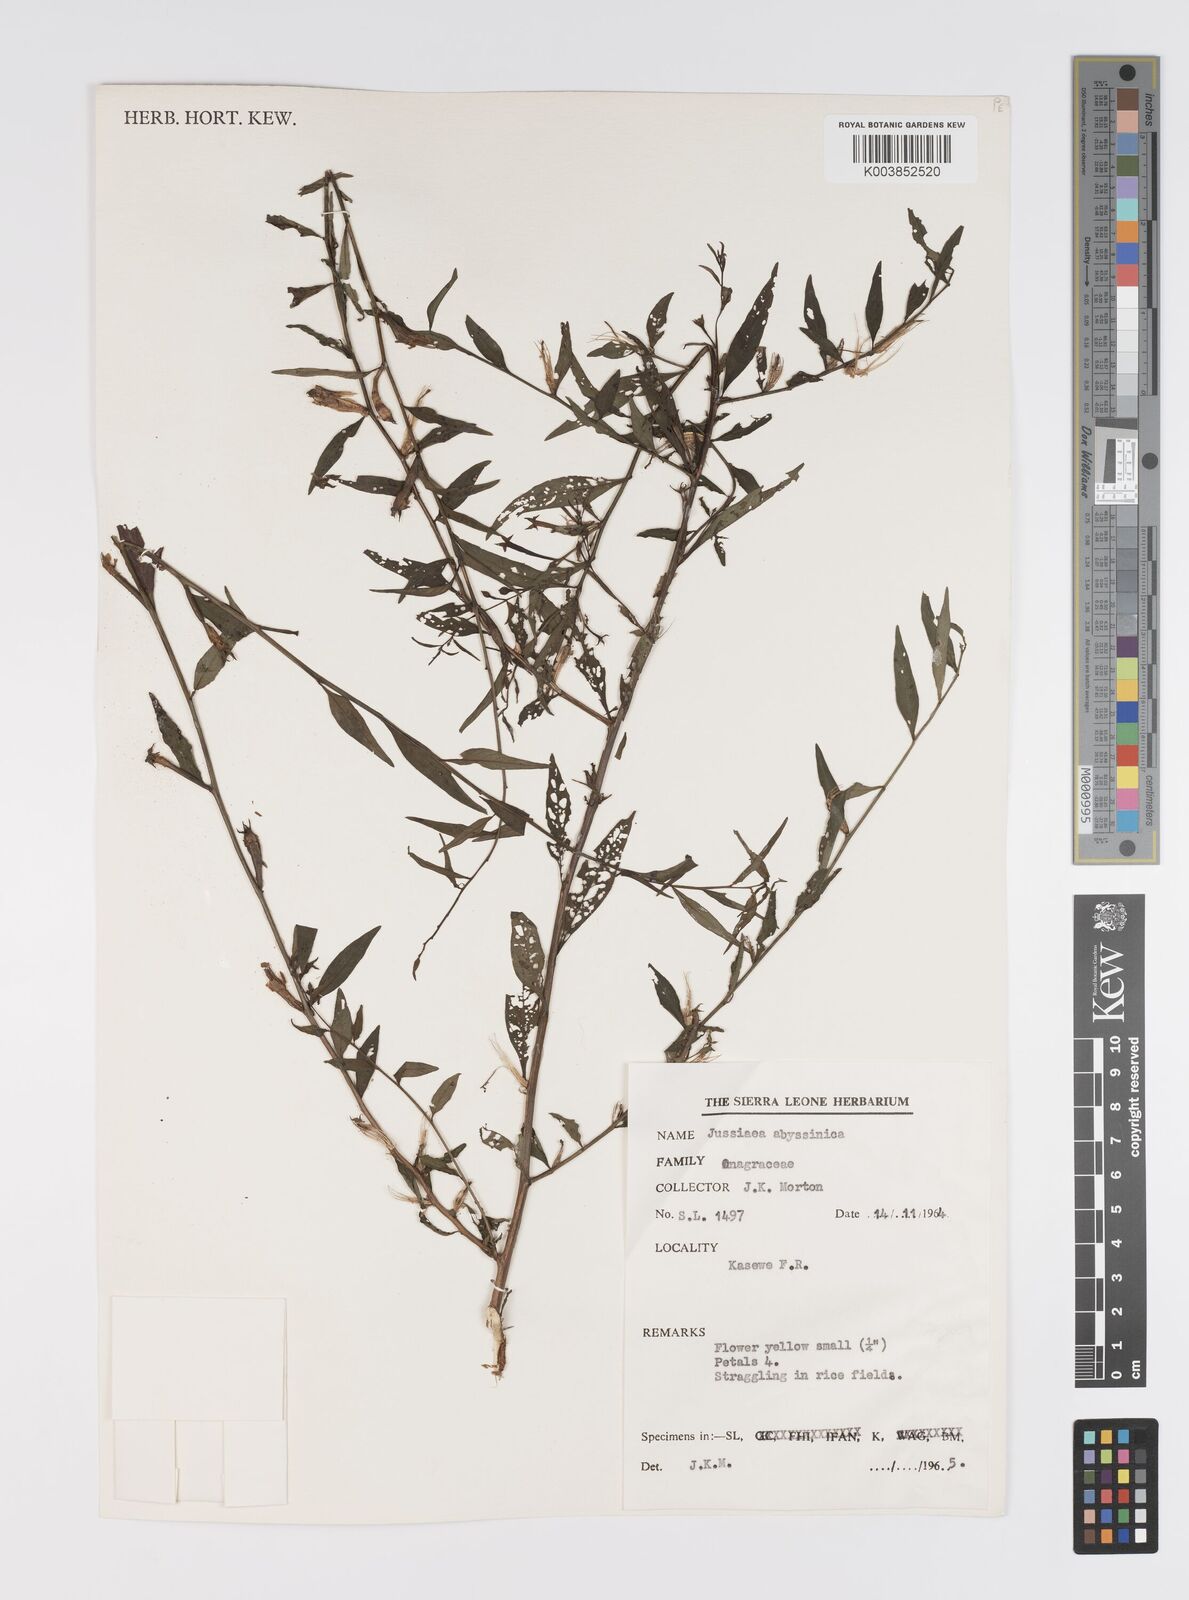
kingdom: Plantae
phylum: Tracheophyta
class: Magnoliopsida
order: Myrtales
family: Onagraceae
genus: Ludwigia
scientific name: Ludwigia abyssinica
